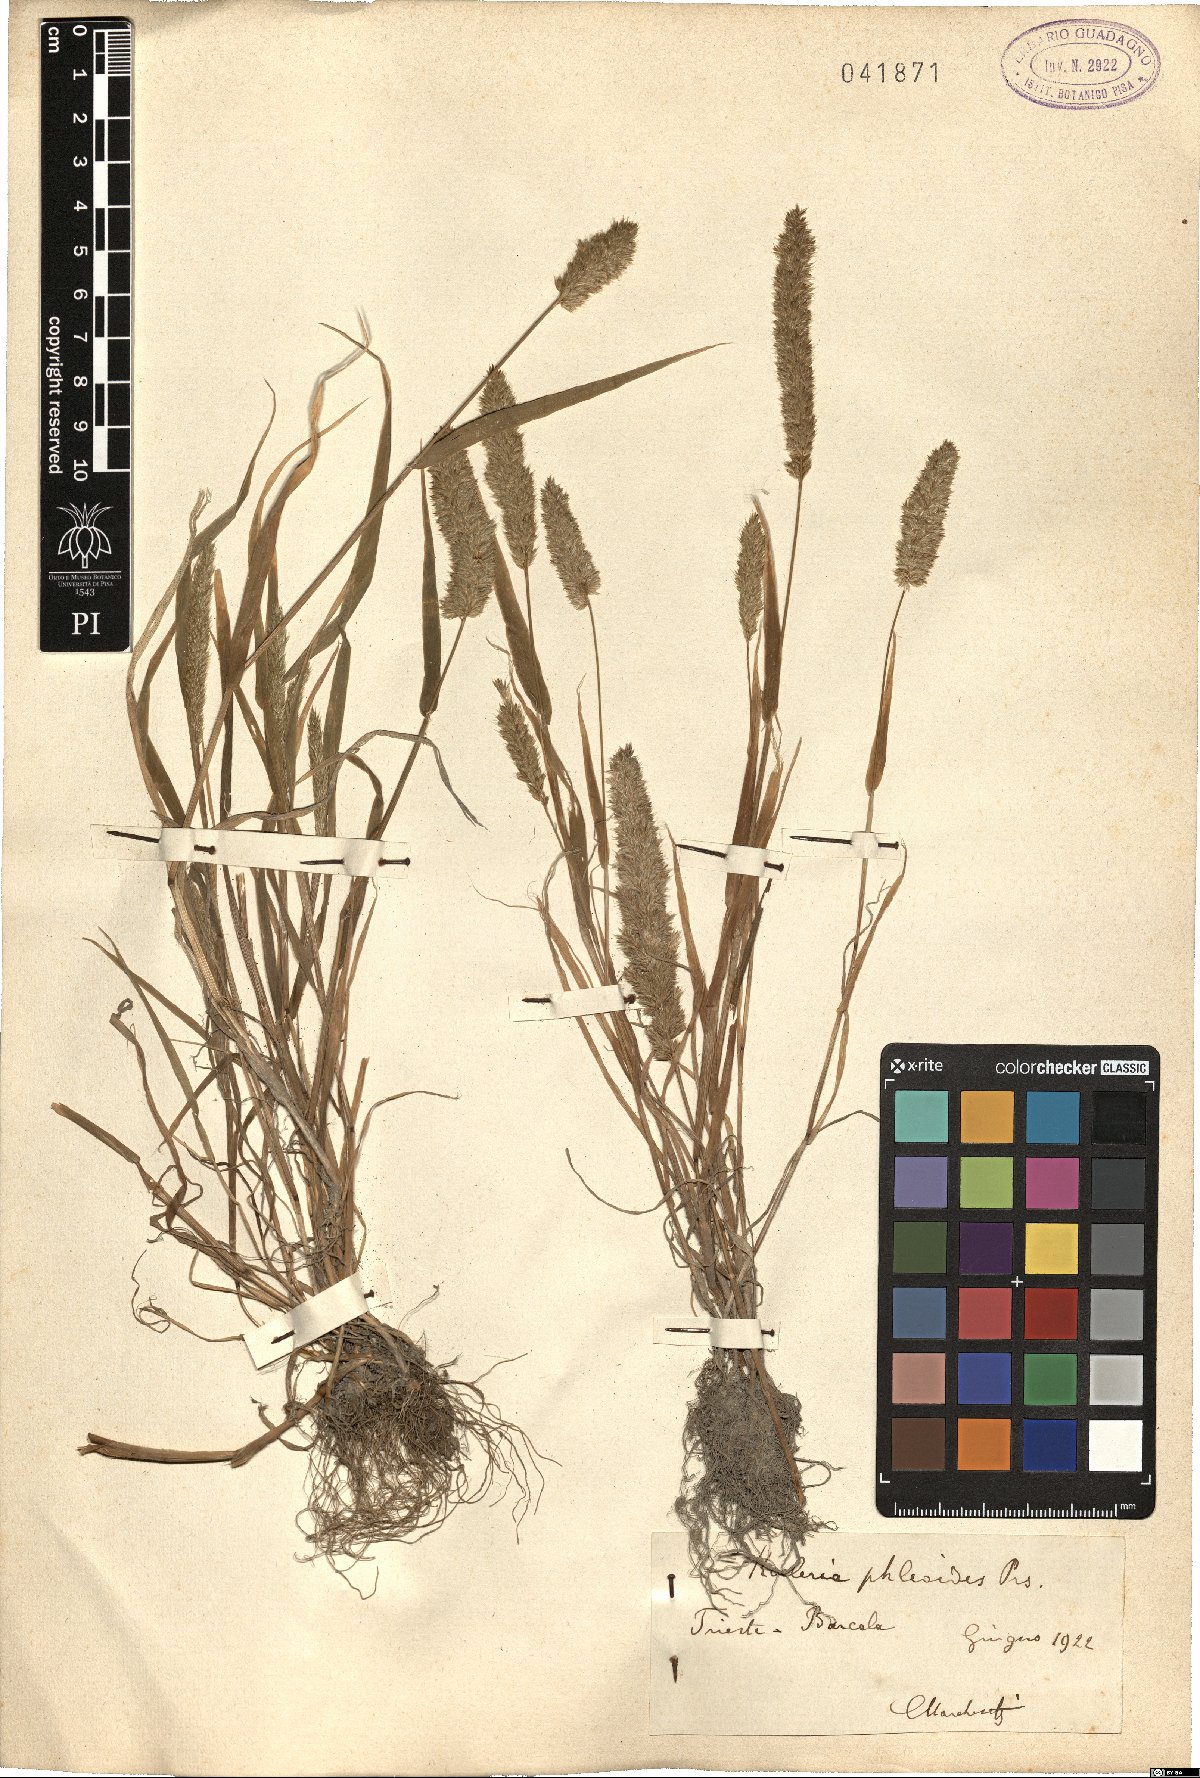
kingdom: Plantae
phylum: Tracheophyta
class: Liliopsida
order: Poales
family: Poaceae
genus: Rostraria
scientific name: Rostraria cristata
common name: Mediterranean hair-grass
